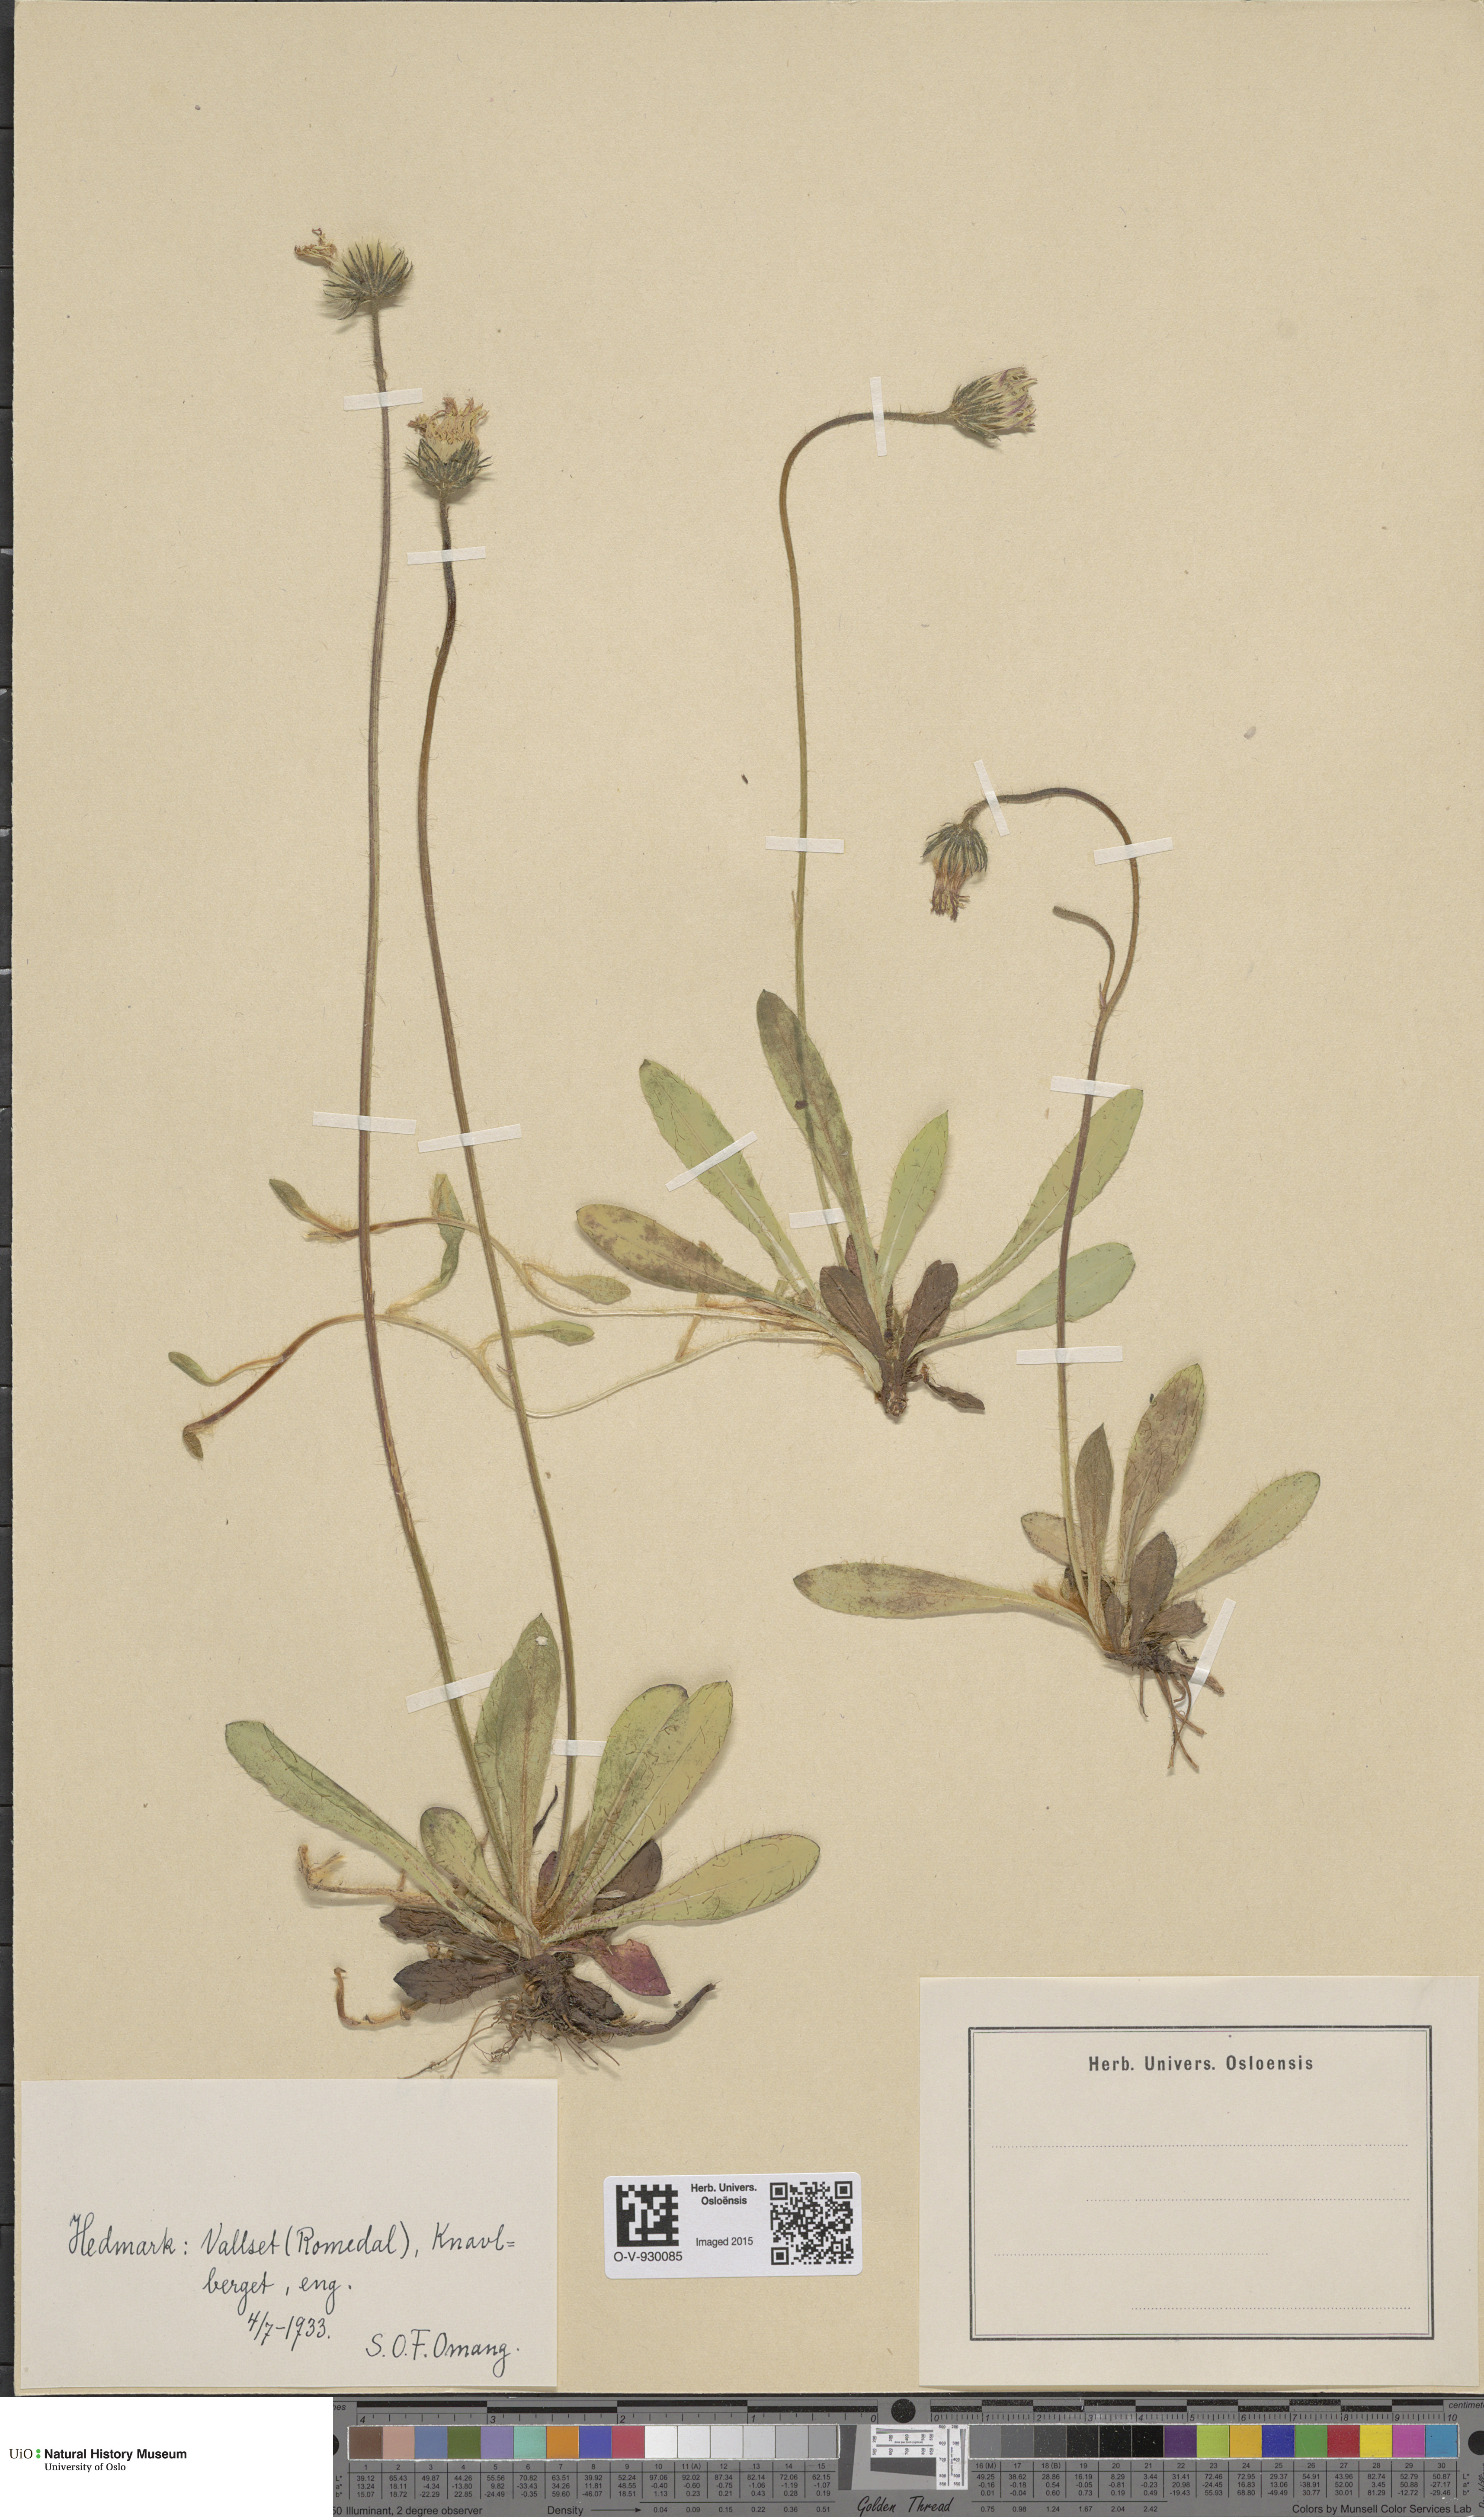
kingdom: Plantae
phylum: Tracheophyta
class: Magnoliopsida
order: Asterales
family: Asteraceae
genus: Pilosella
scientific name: Pilosella officinarum
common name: Mouse-ear hawkweed
